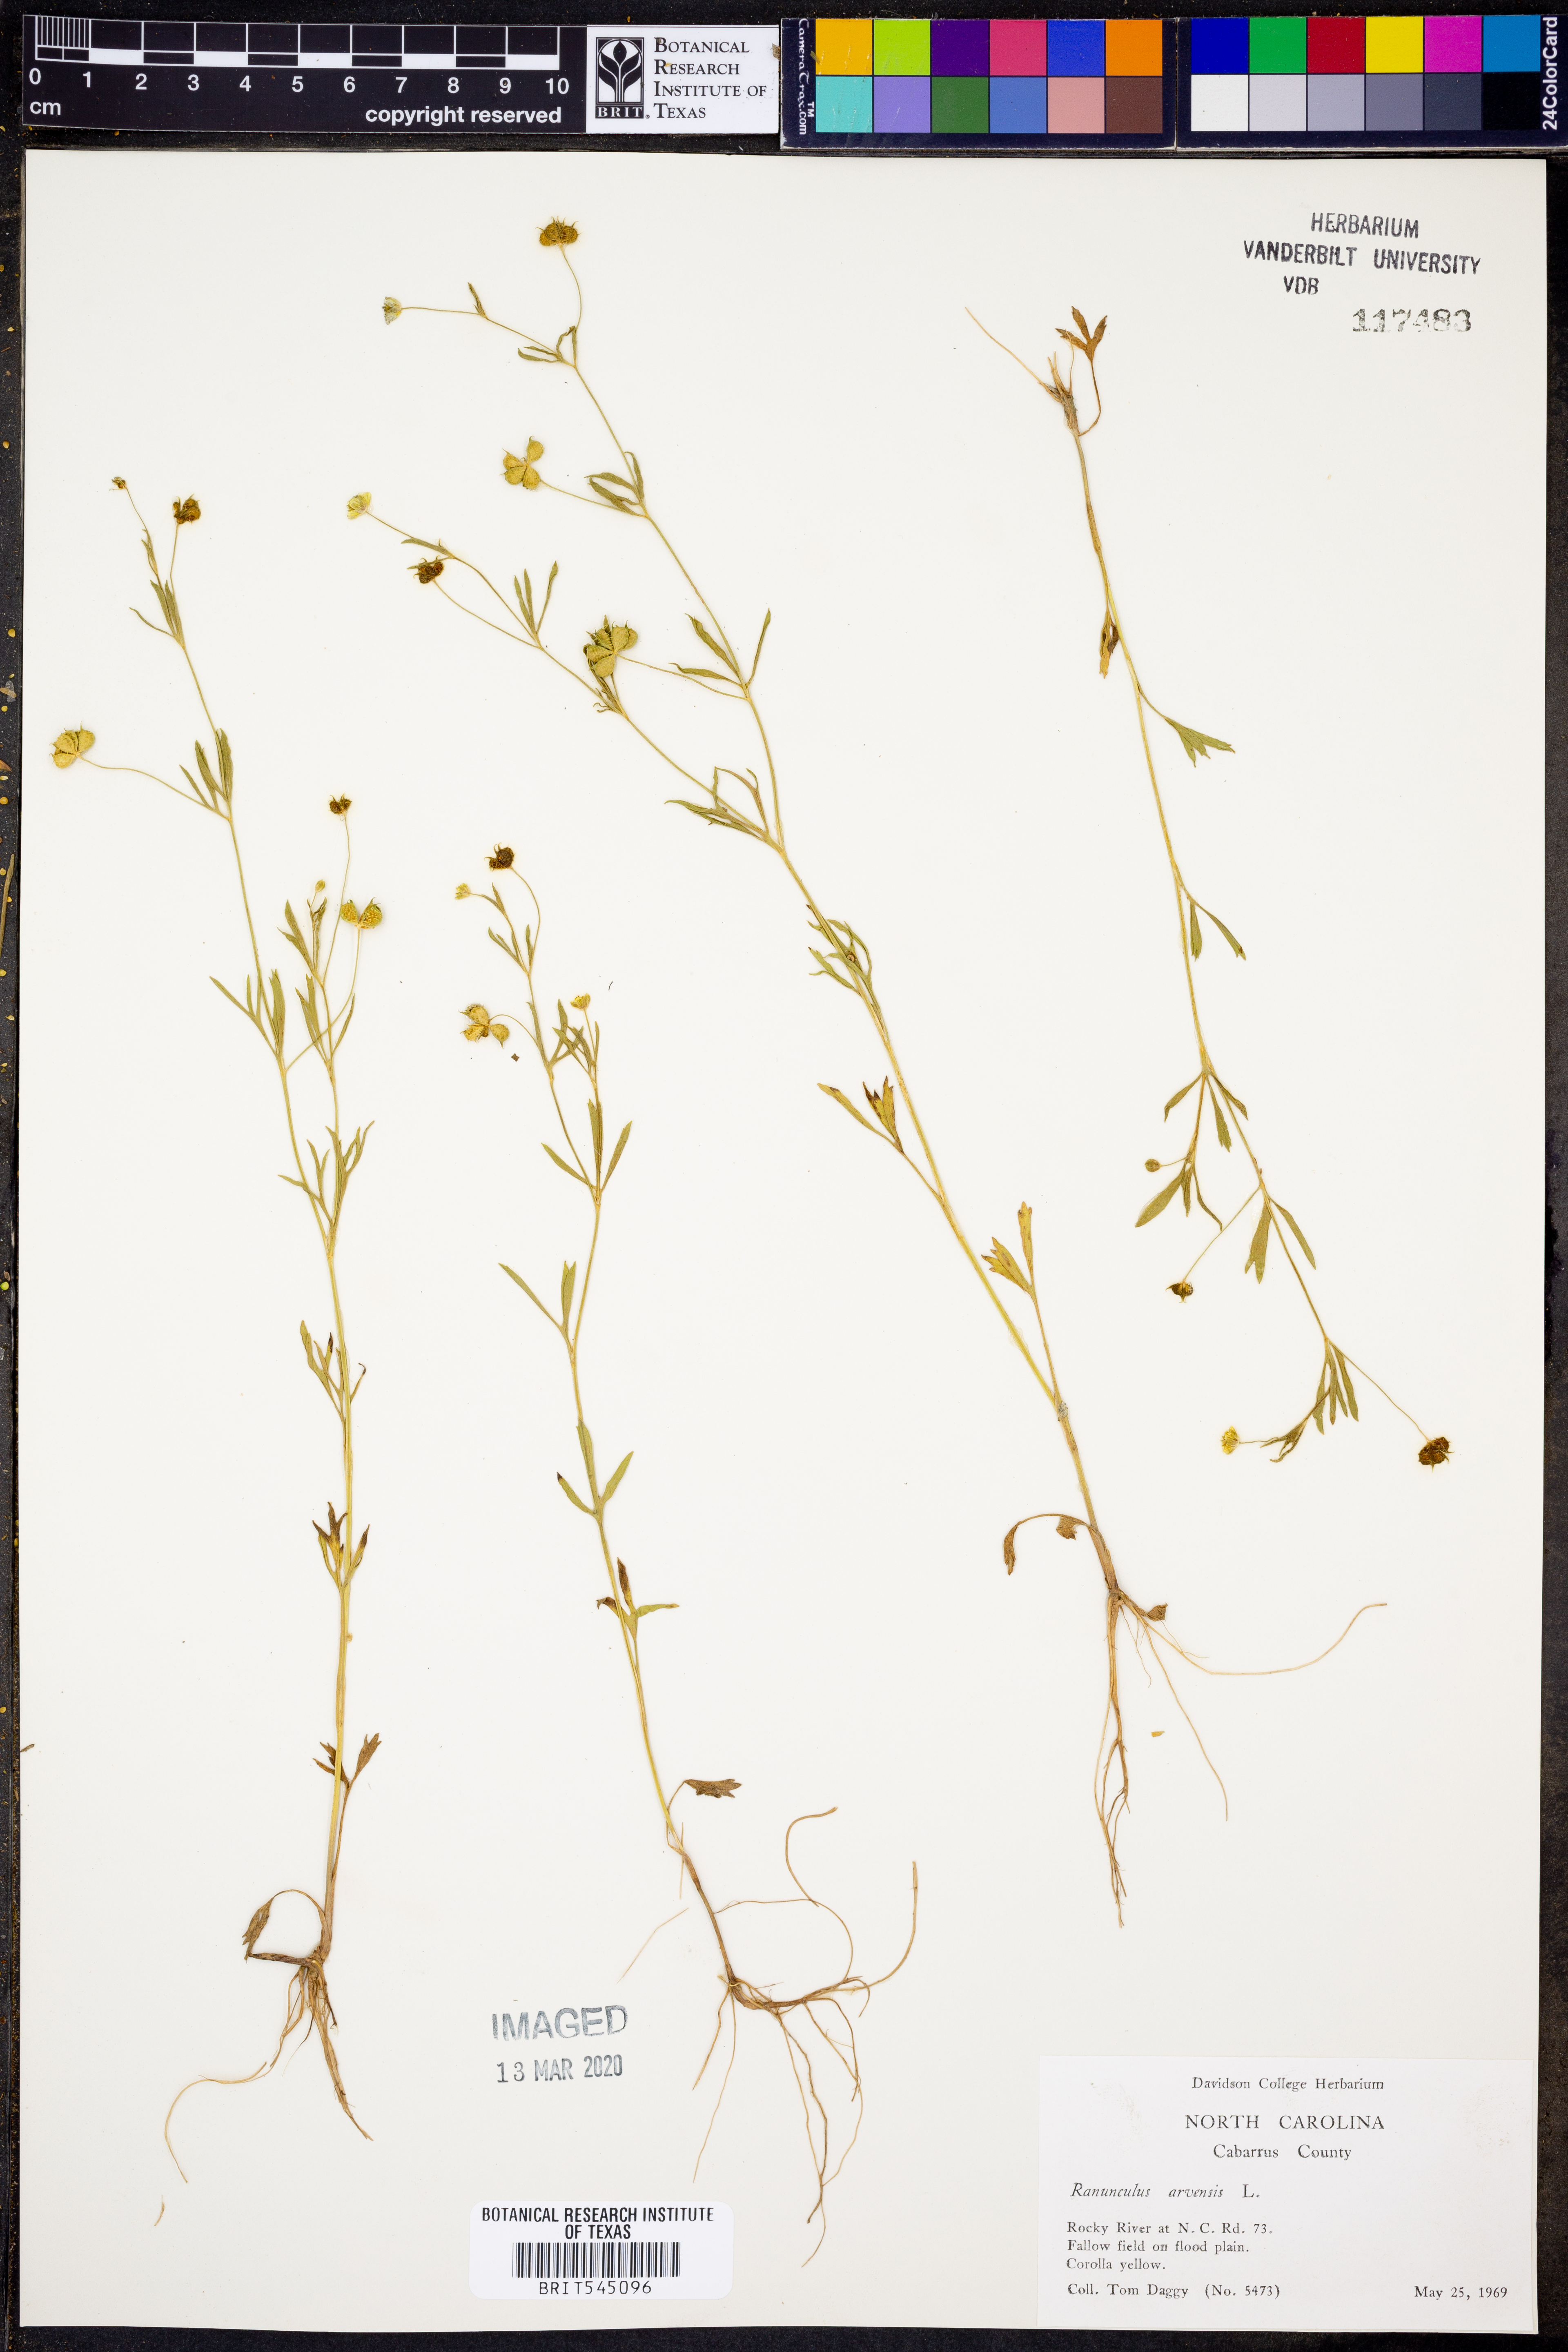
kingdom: Plantae
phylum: Tracheophyta
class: Magnoliopsida
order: Ranunculales
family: Ranunculaceae
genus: Ranunculus
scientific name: Ranunculus arvensis
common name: Corn buttercup
